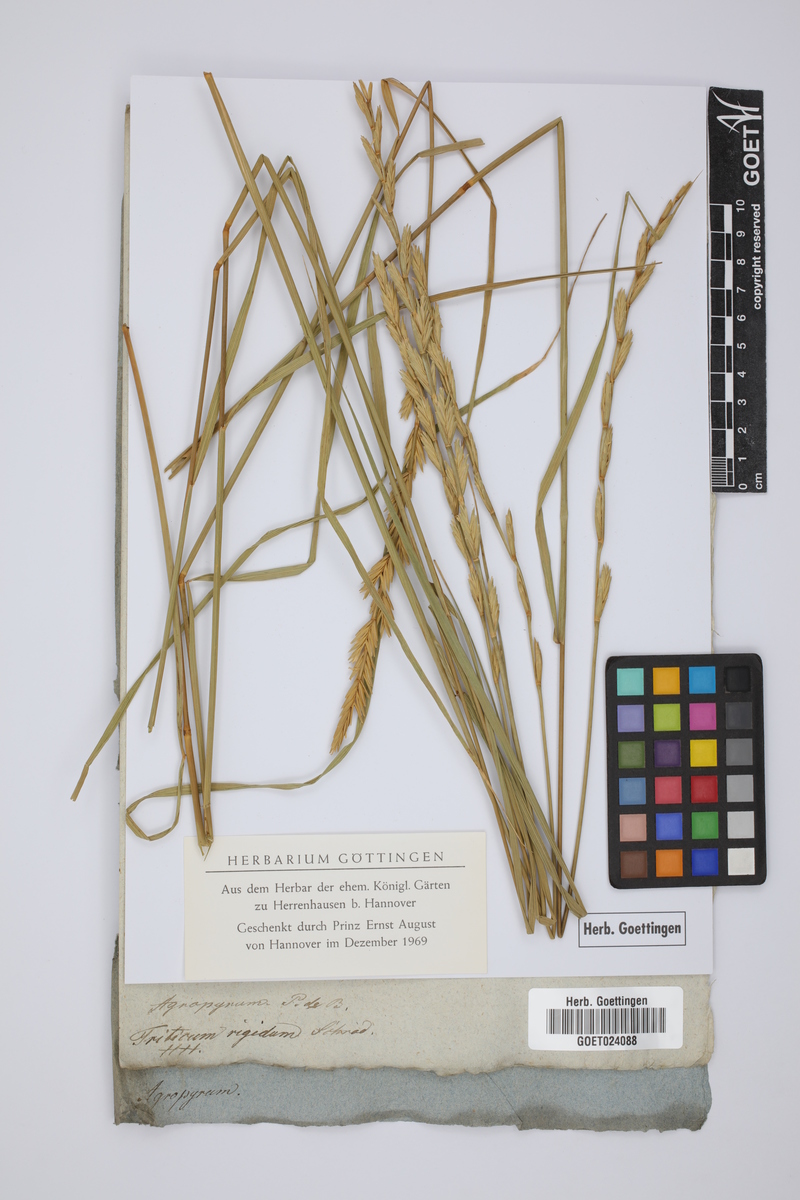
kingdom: Plantae
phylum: Tracheophyta
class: Liliopsida
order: Poales
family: Poaceae
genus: Thinopyrum
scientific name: Thinopyrum elongatum
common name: Tall wheatgrass
